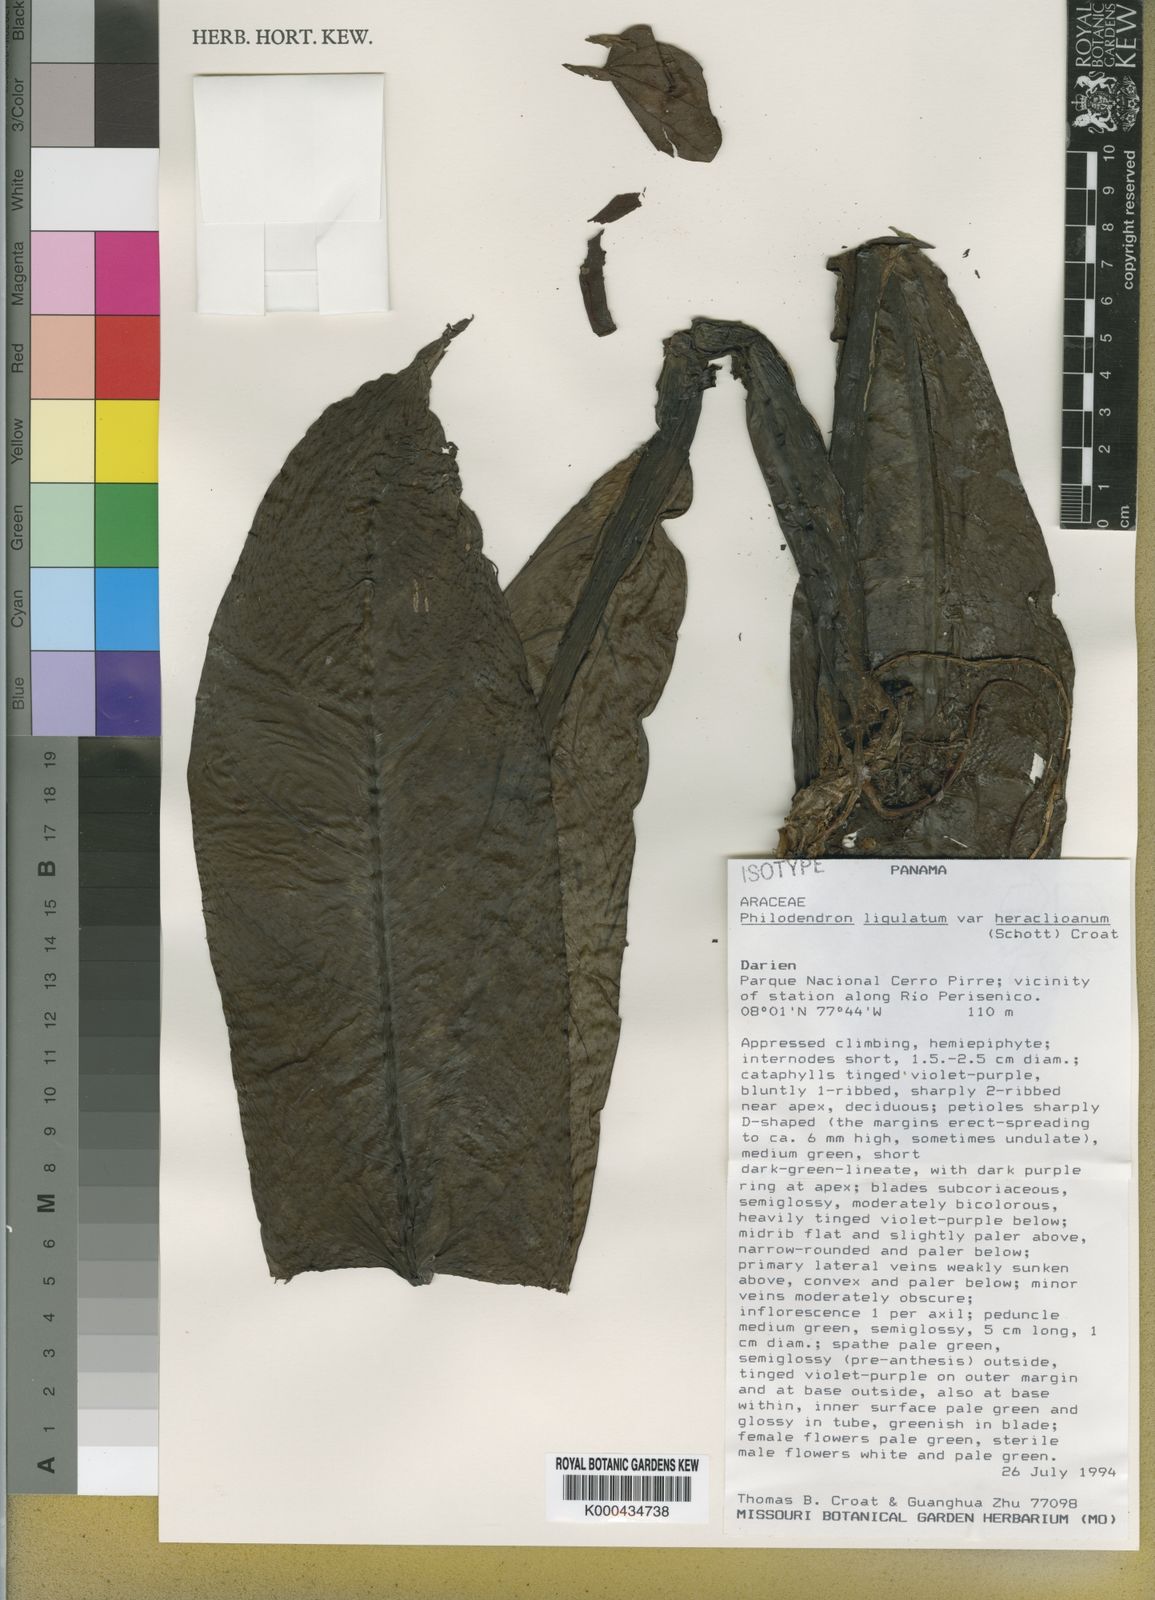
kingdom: Plantae
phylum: Tracheophyta
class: Liliopsida
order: Alismatales
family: Araceae
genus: Philodendron
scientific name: Philodendron ligulatum
